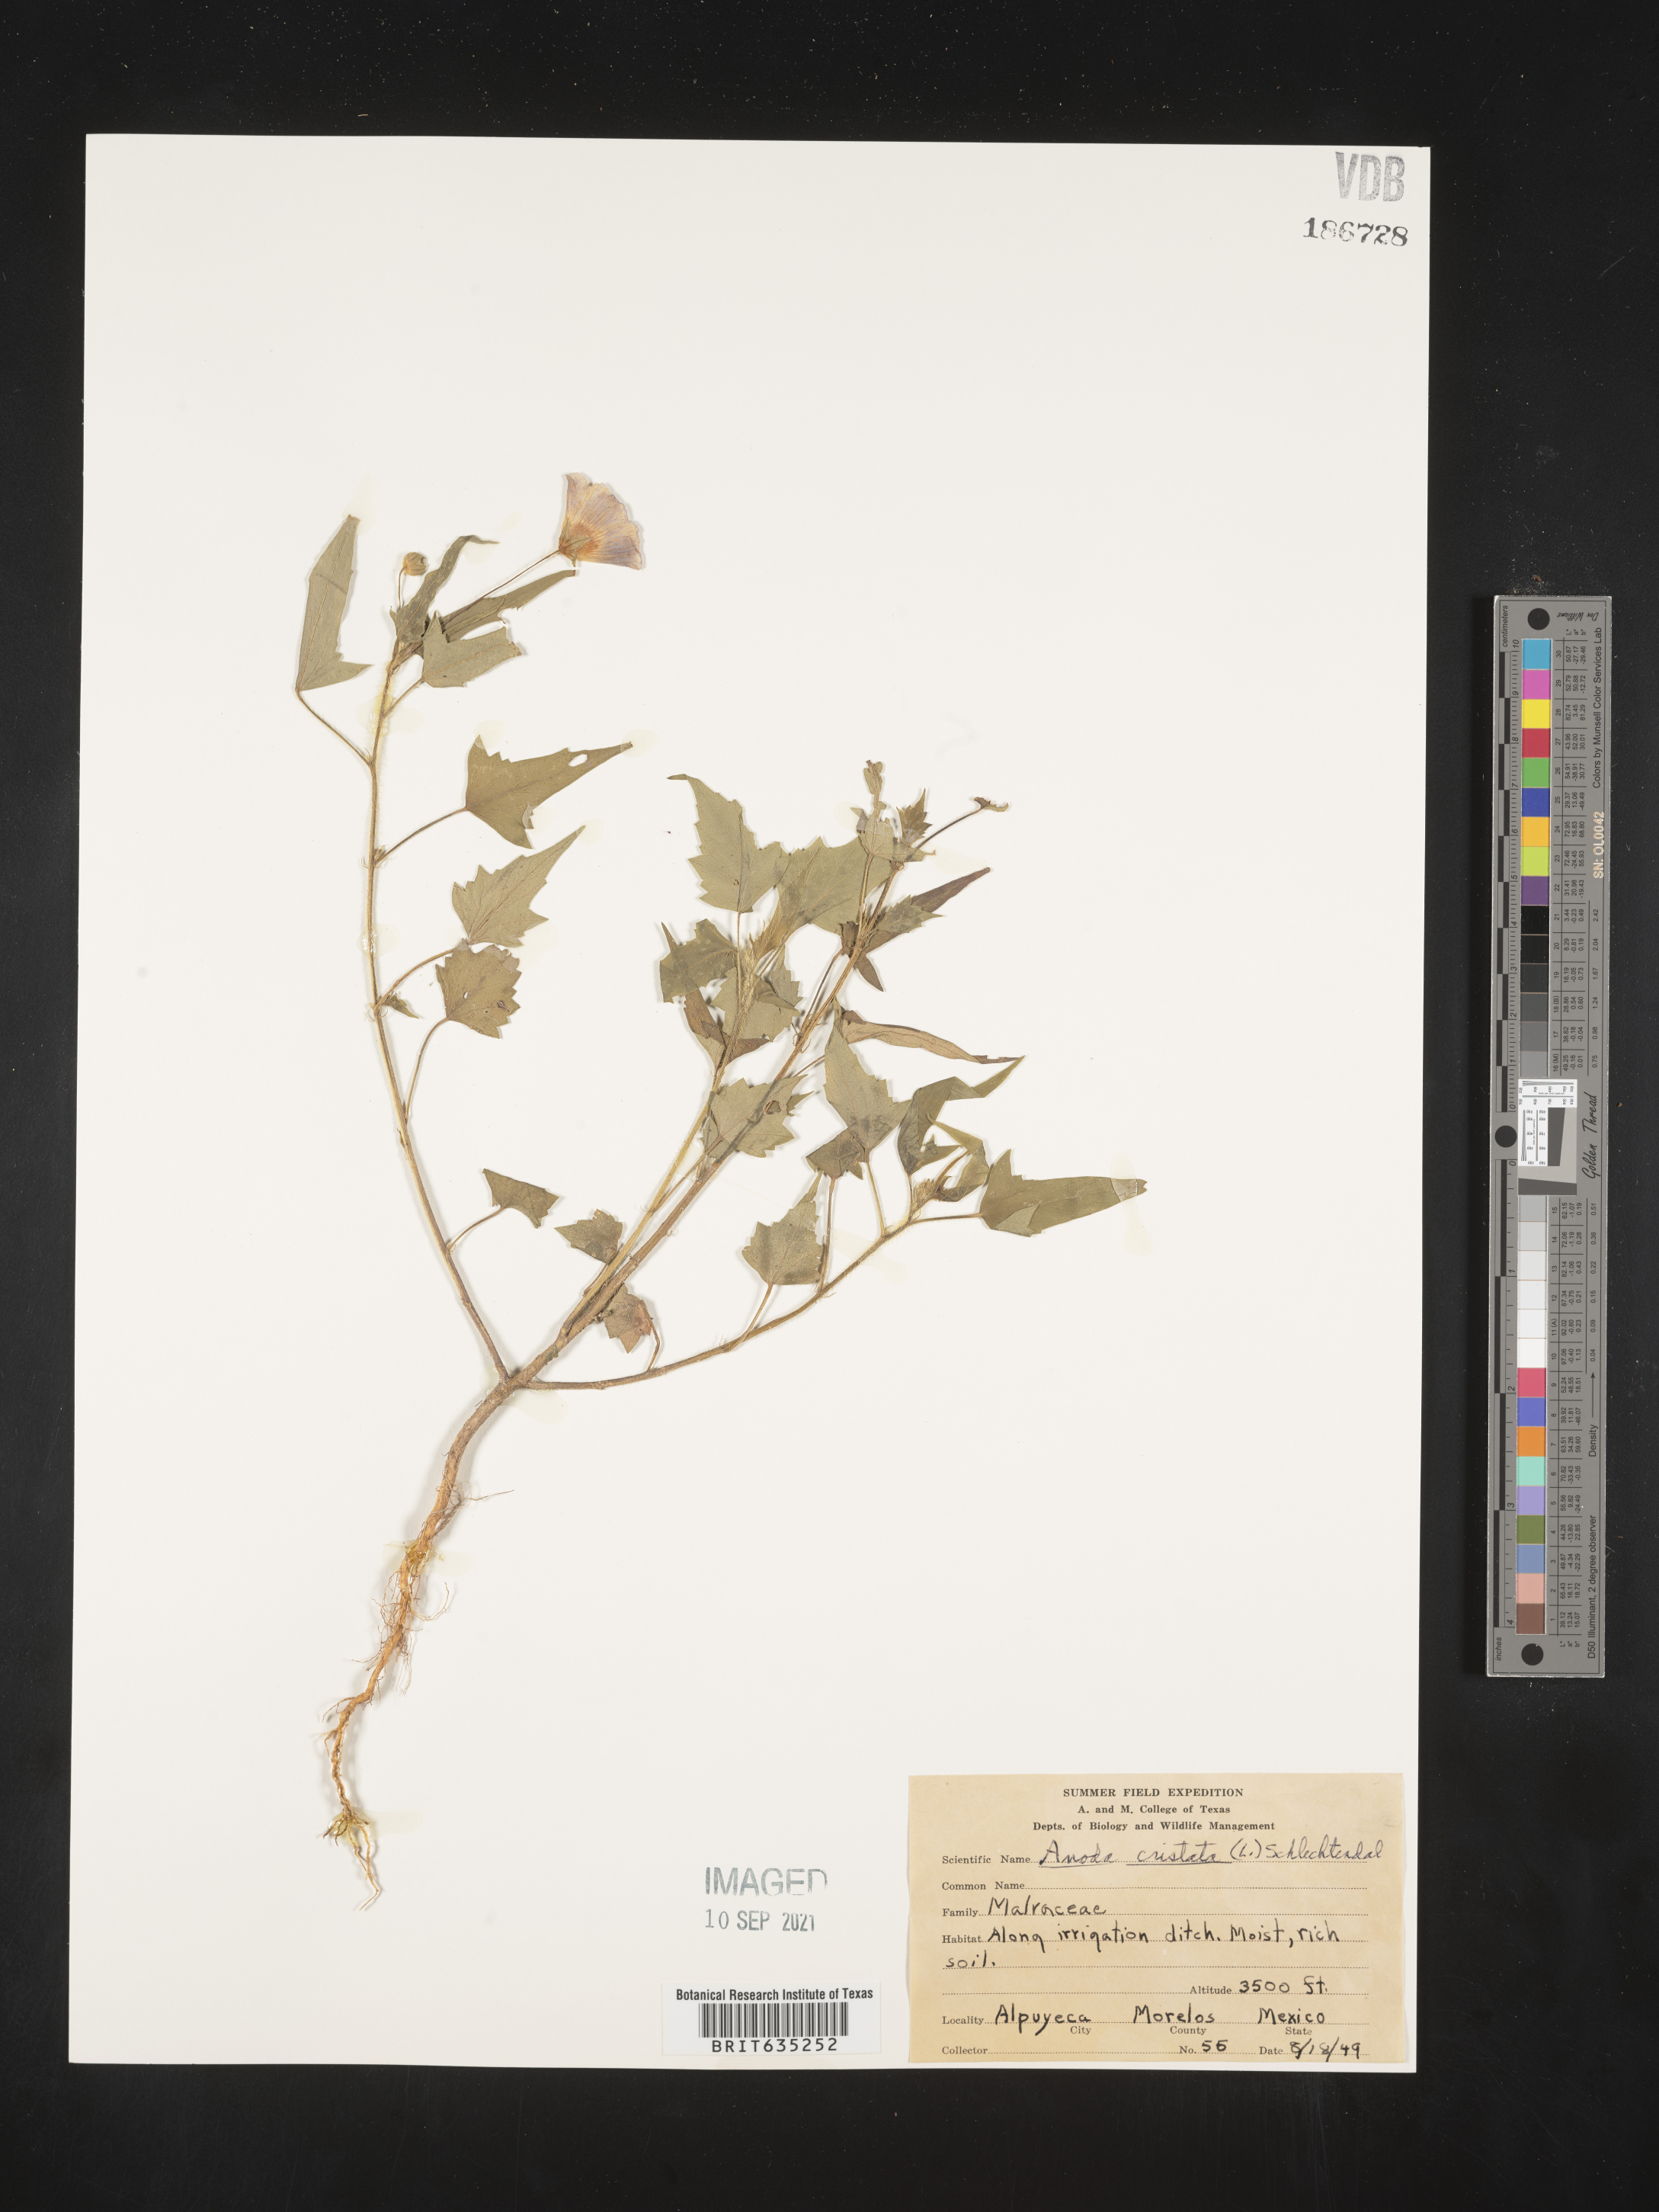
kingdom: Plantae
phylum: Tracheophyta
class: Magnoliopsida
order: Malvales
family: Malvaceae
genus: Anoda
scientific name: Anoda
